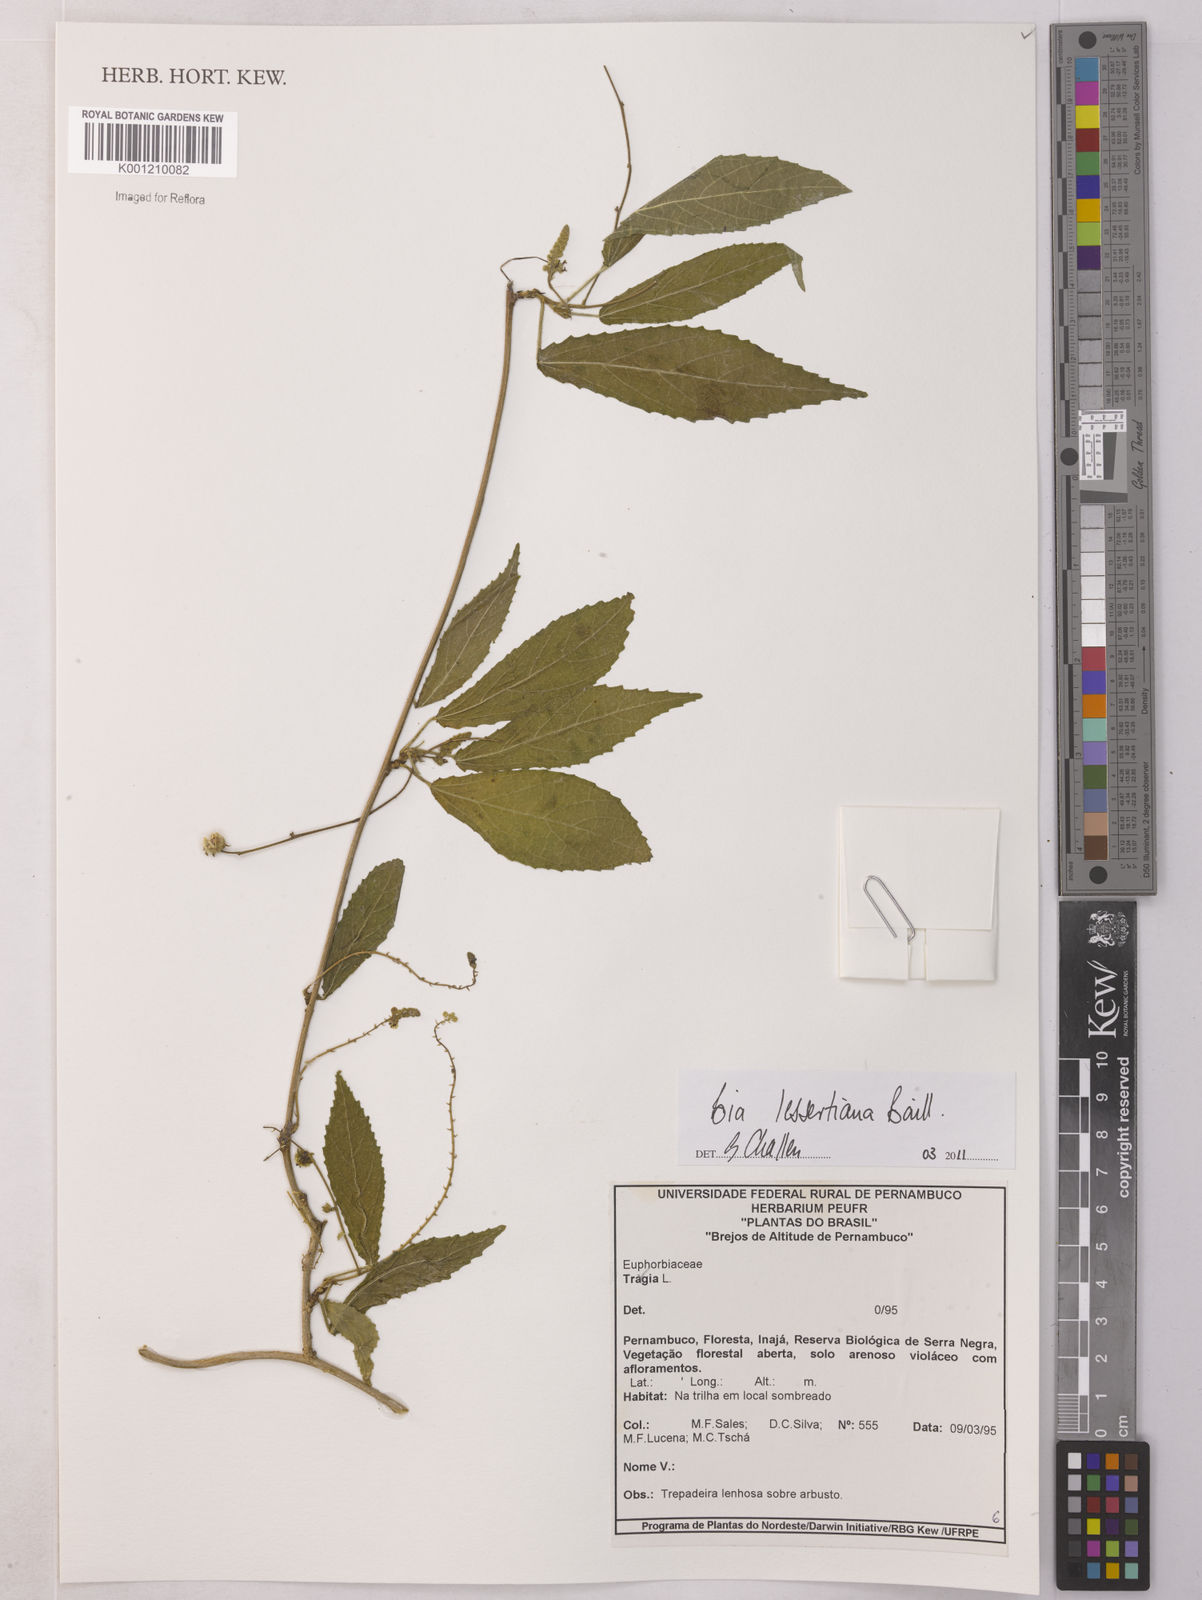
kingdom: Plantae
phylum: Tracheophyta
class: Magnoliopsida
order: Malpighiales
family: Euphorbiaceae
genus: Bia
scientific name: Bia lessertiana
